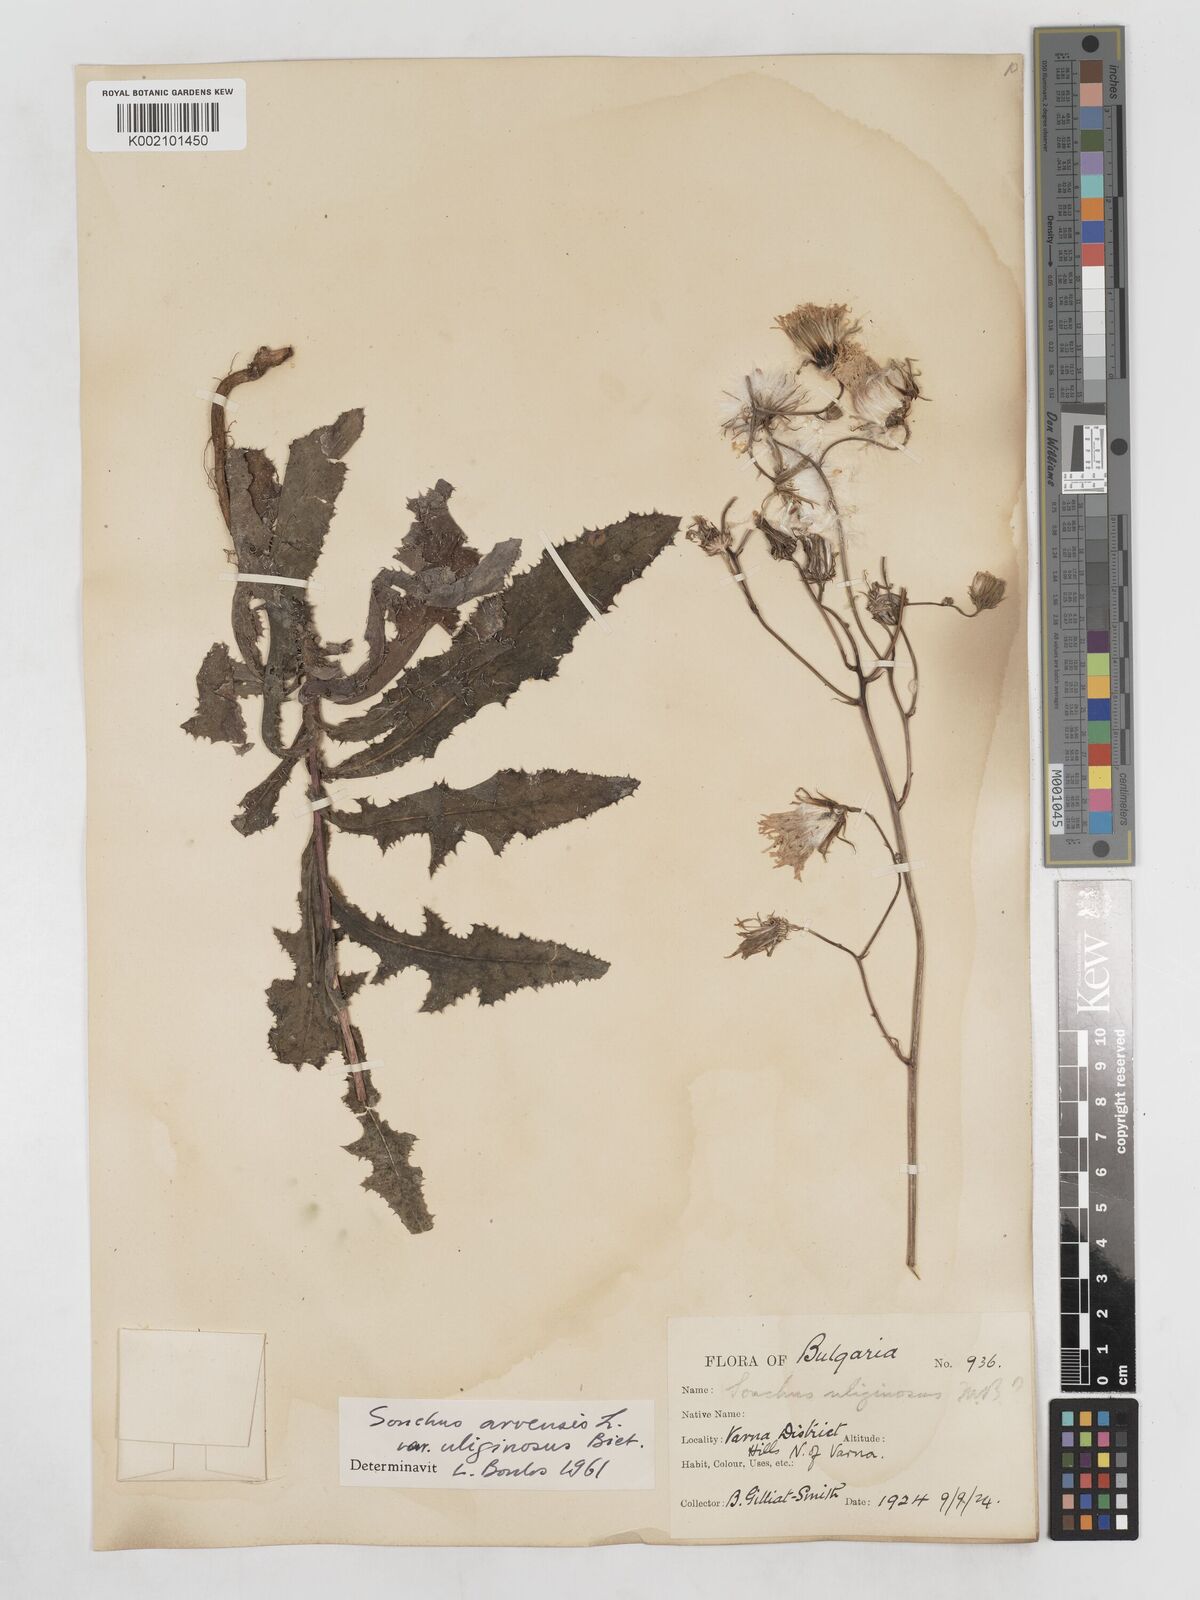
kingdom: Plantae
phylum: Tracheophyta
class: Magnoliopsida
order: Asterales
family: Asteraceae
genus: Sonchus
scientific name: Sonchus arvensis
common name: Perennial sow-thistle
